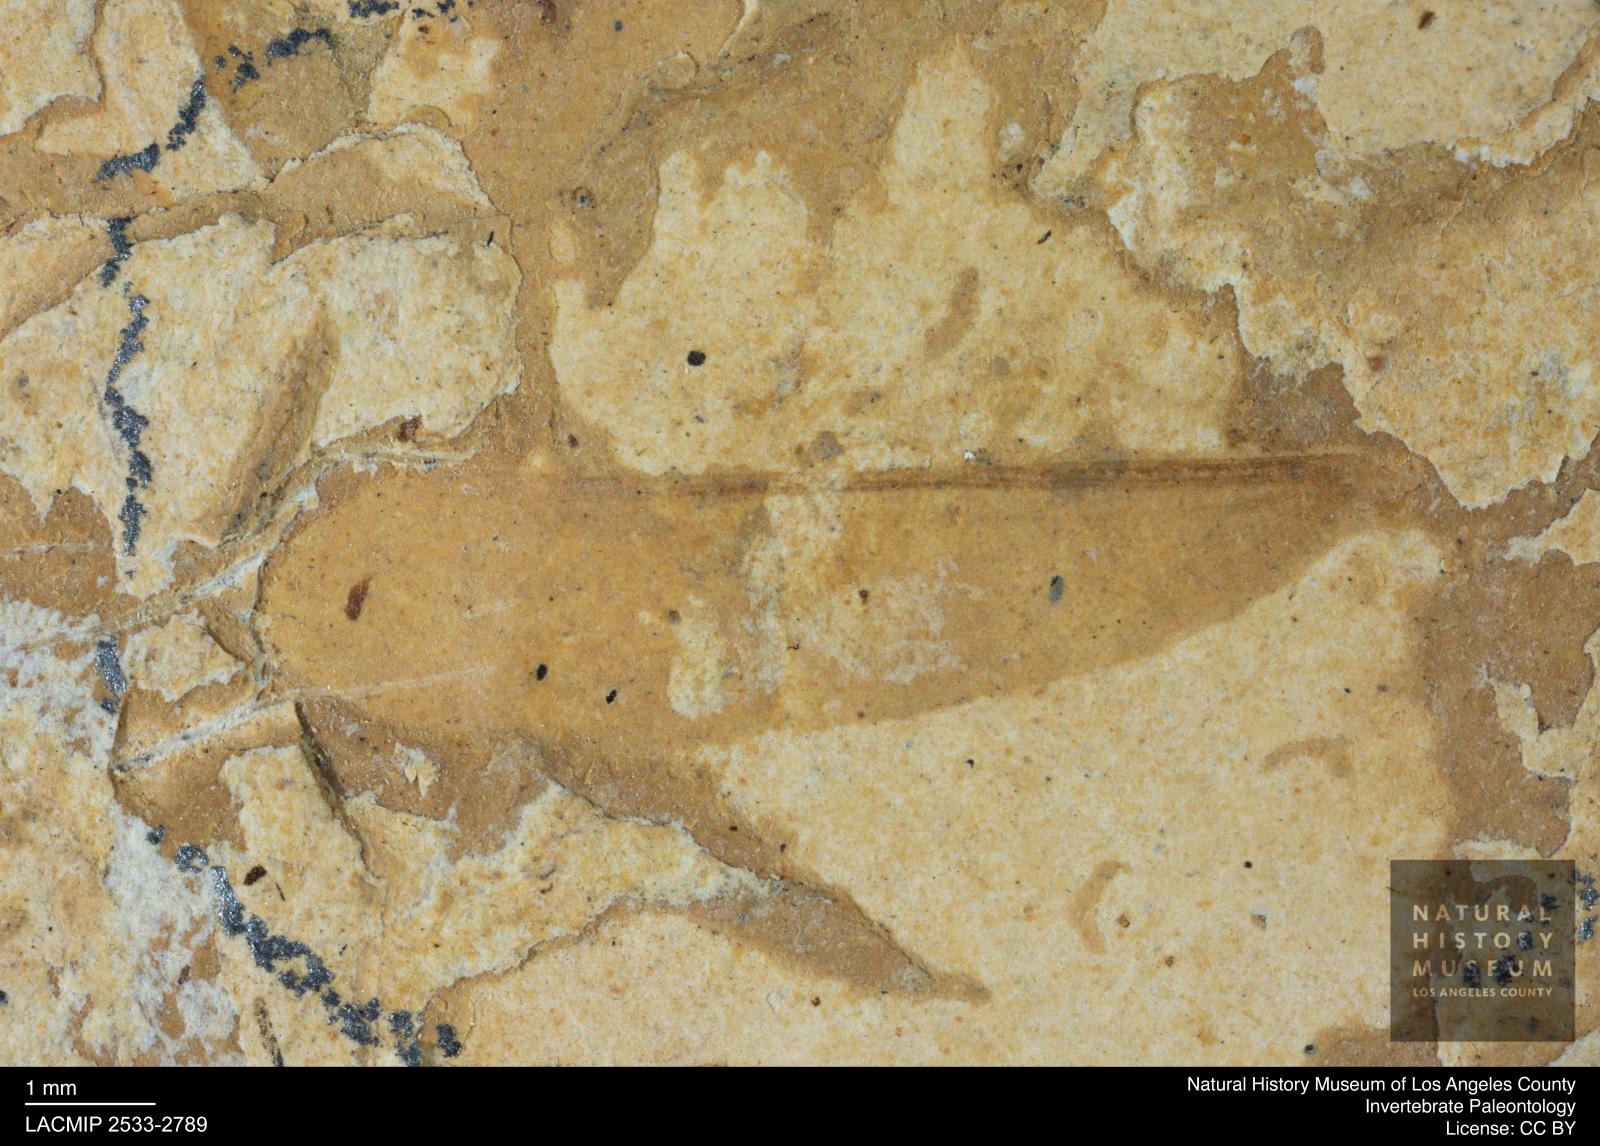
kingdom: Animalia
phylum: Arthropoda
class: Insecta
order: Blattodea
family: Kalotermitidae
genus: Kalotermes
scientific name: Kalotermes rhenanus
